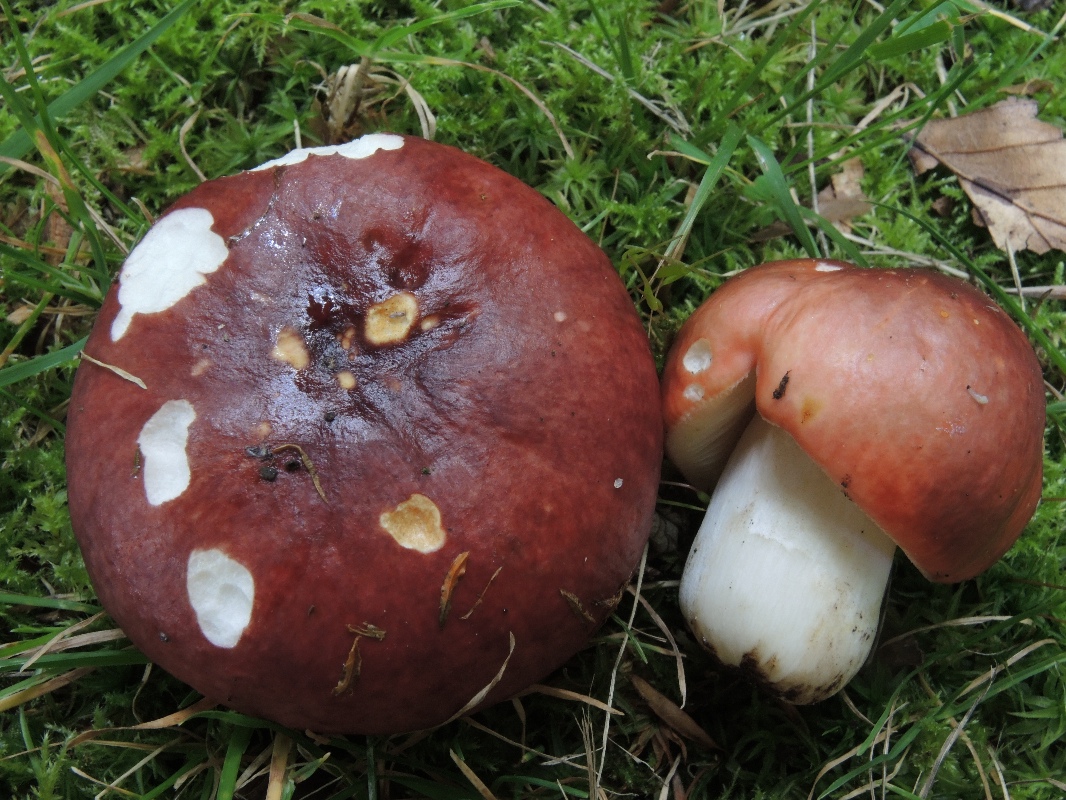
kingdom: Fungi
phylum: Basidiomycota
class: Agaricomycetes
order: Russulales
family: Russulaceae
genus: Russula
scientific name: Russula melliolens
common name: honning-skørhat
